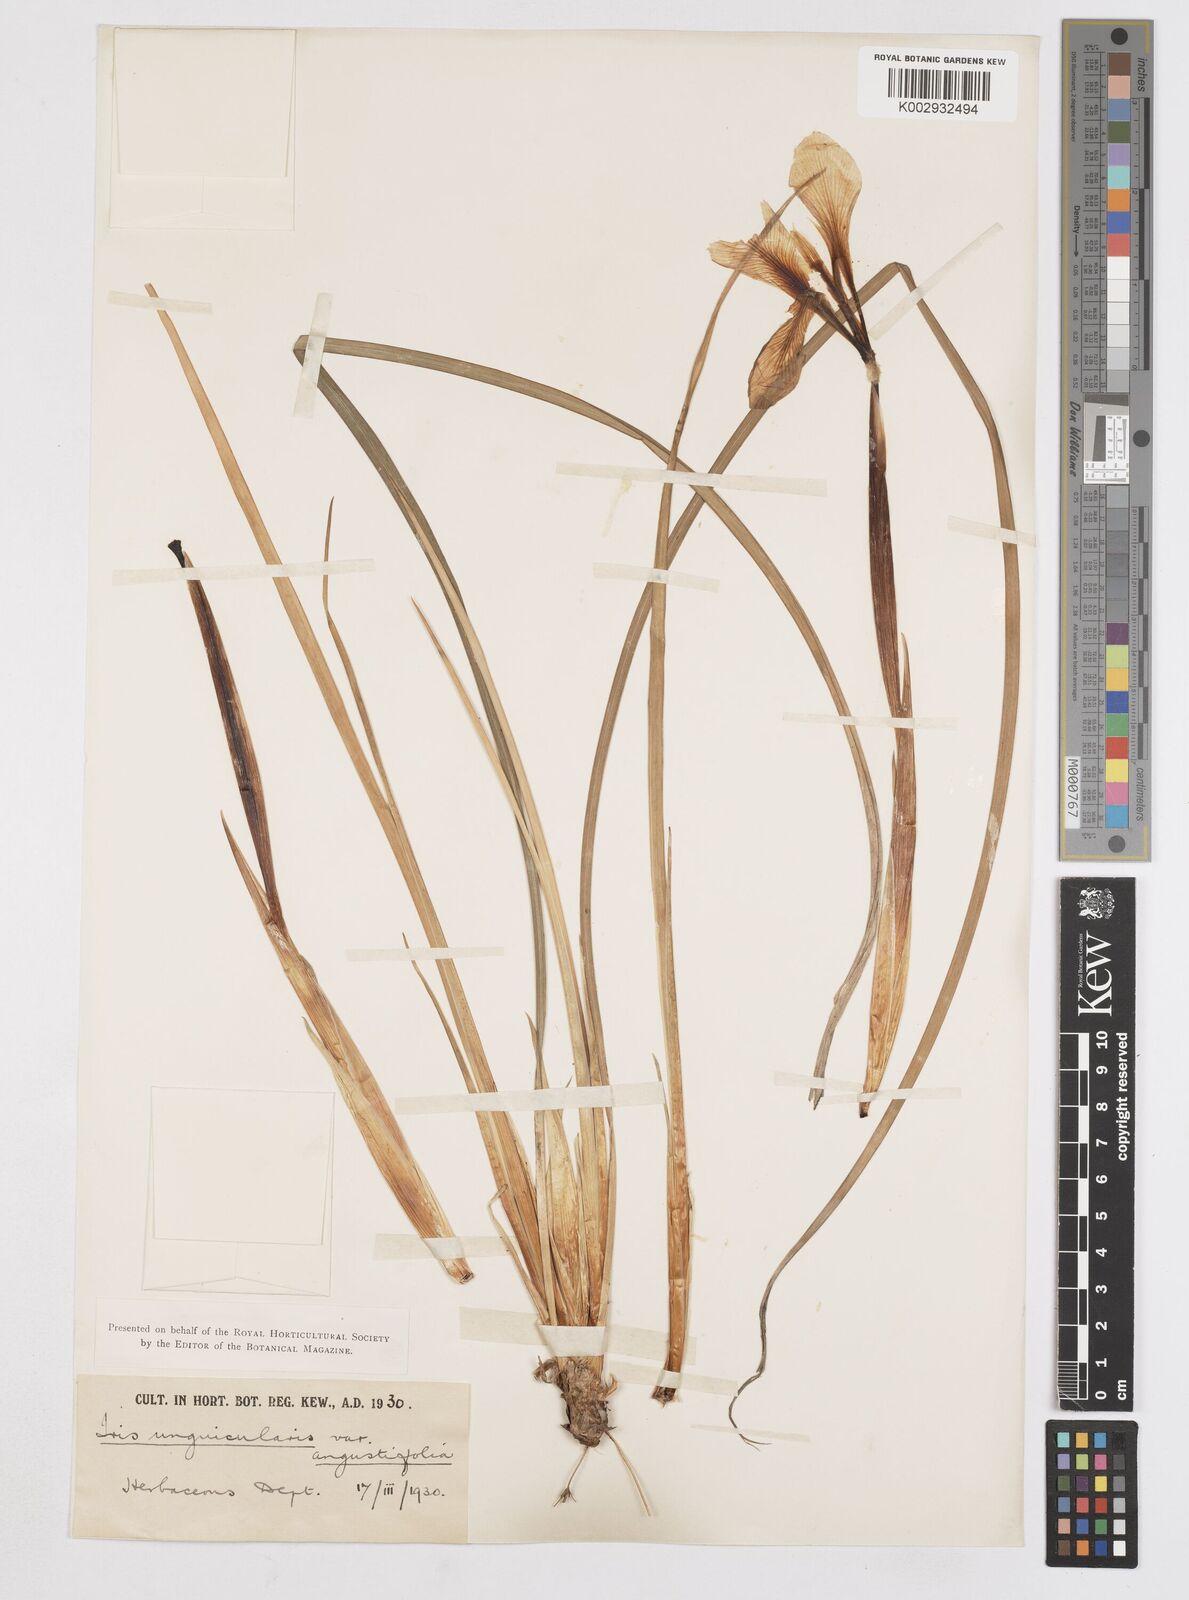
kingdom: Plantae
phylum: Tracheophyta
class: Liliopsida
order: Asparagales
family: Iridaceae
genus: Iris
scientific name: Iris unguicularis
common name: Algerian iris
